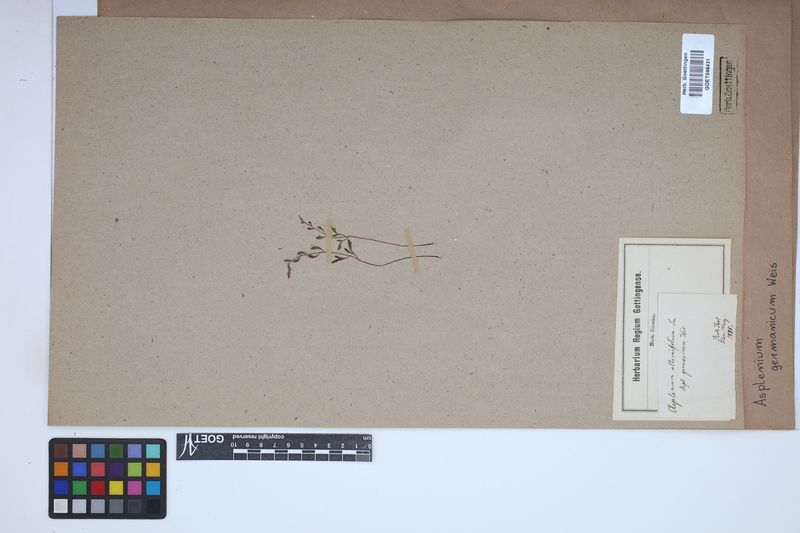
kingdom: Plantae
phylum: Tracheophyta
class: Polypodiopsida
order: Polypodiales
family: Aspleniaceae
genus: Asplenium
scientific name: Asplenium
